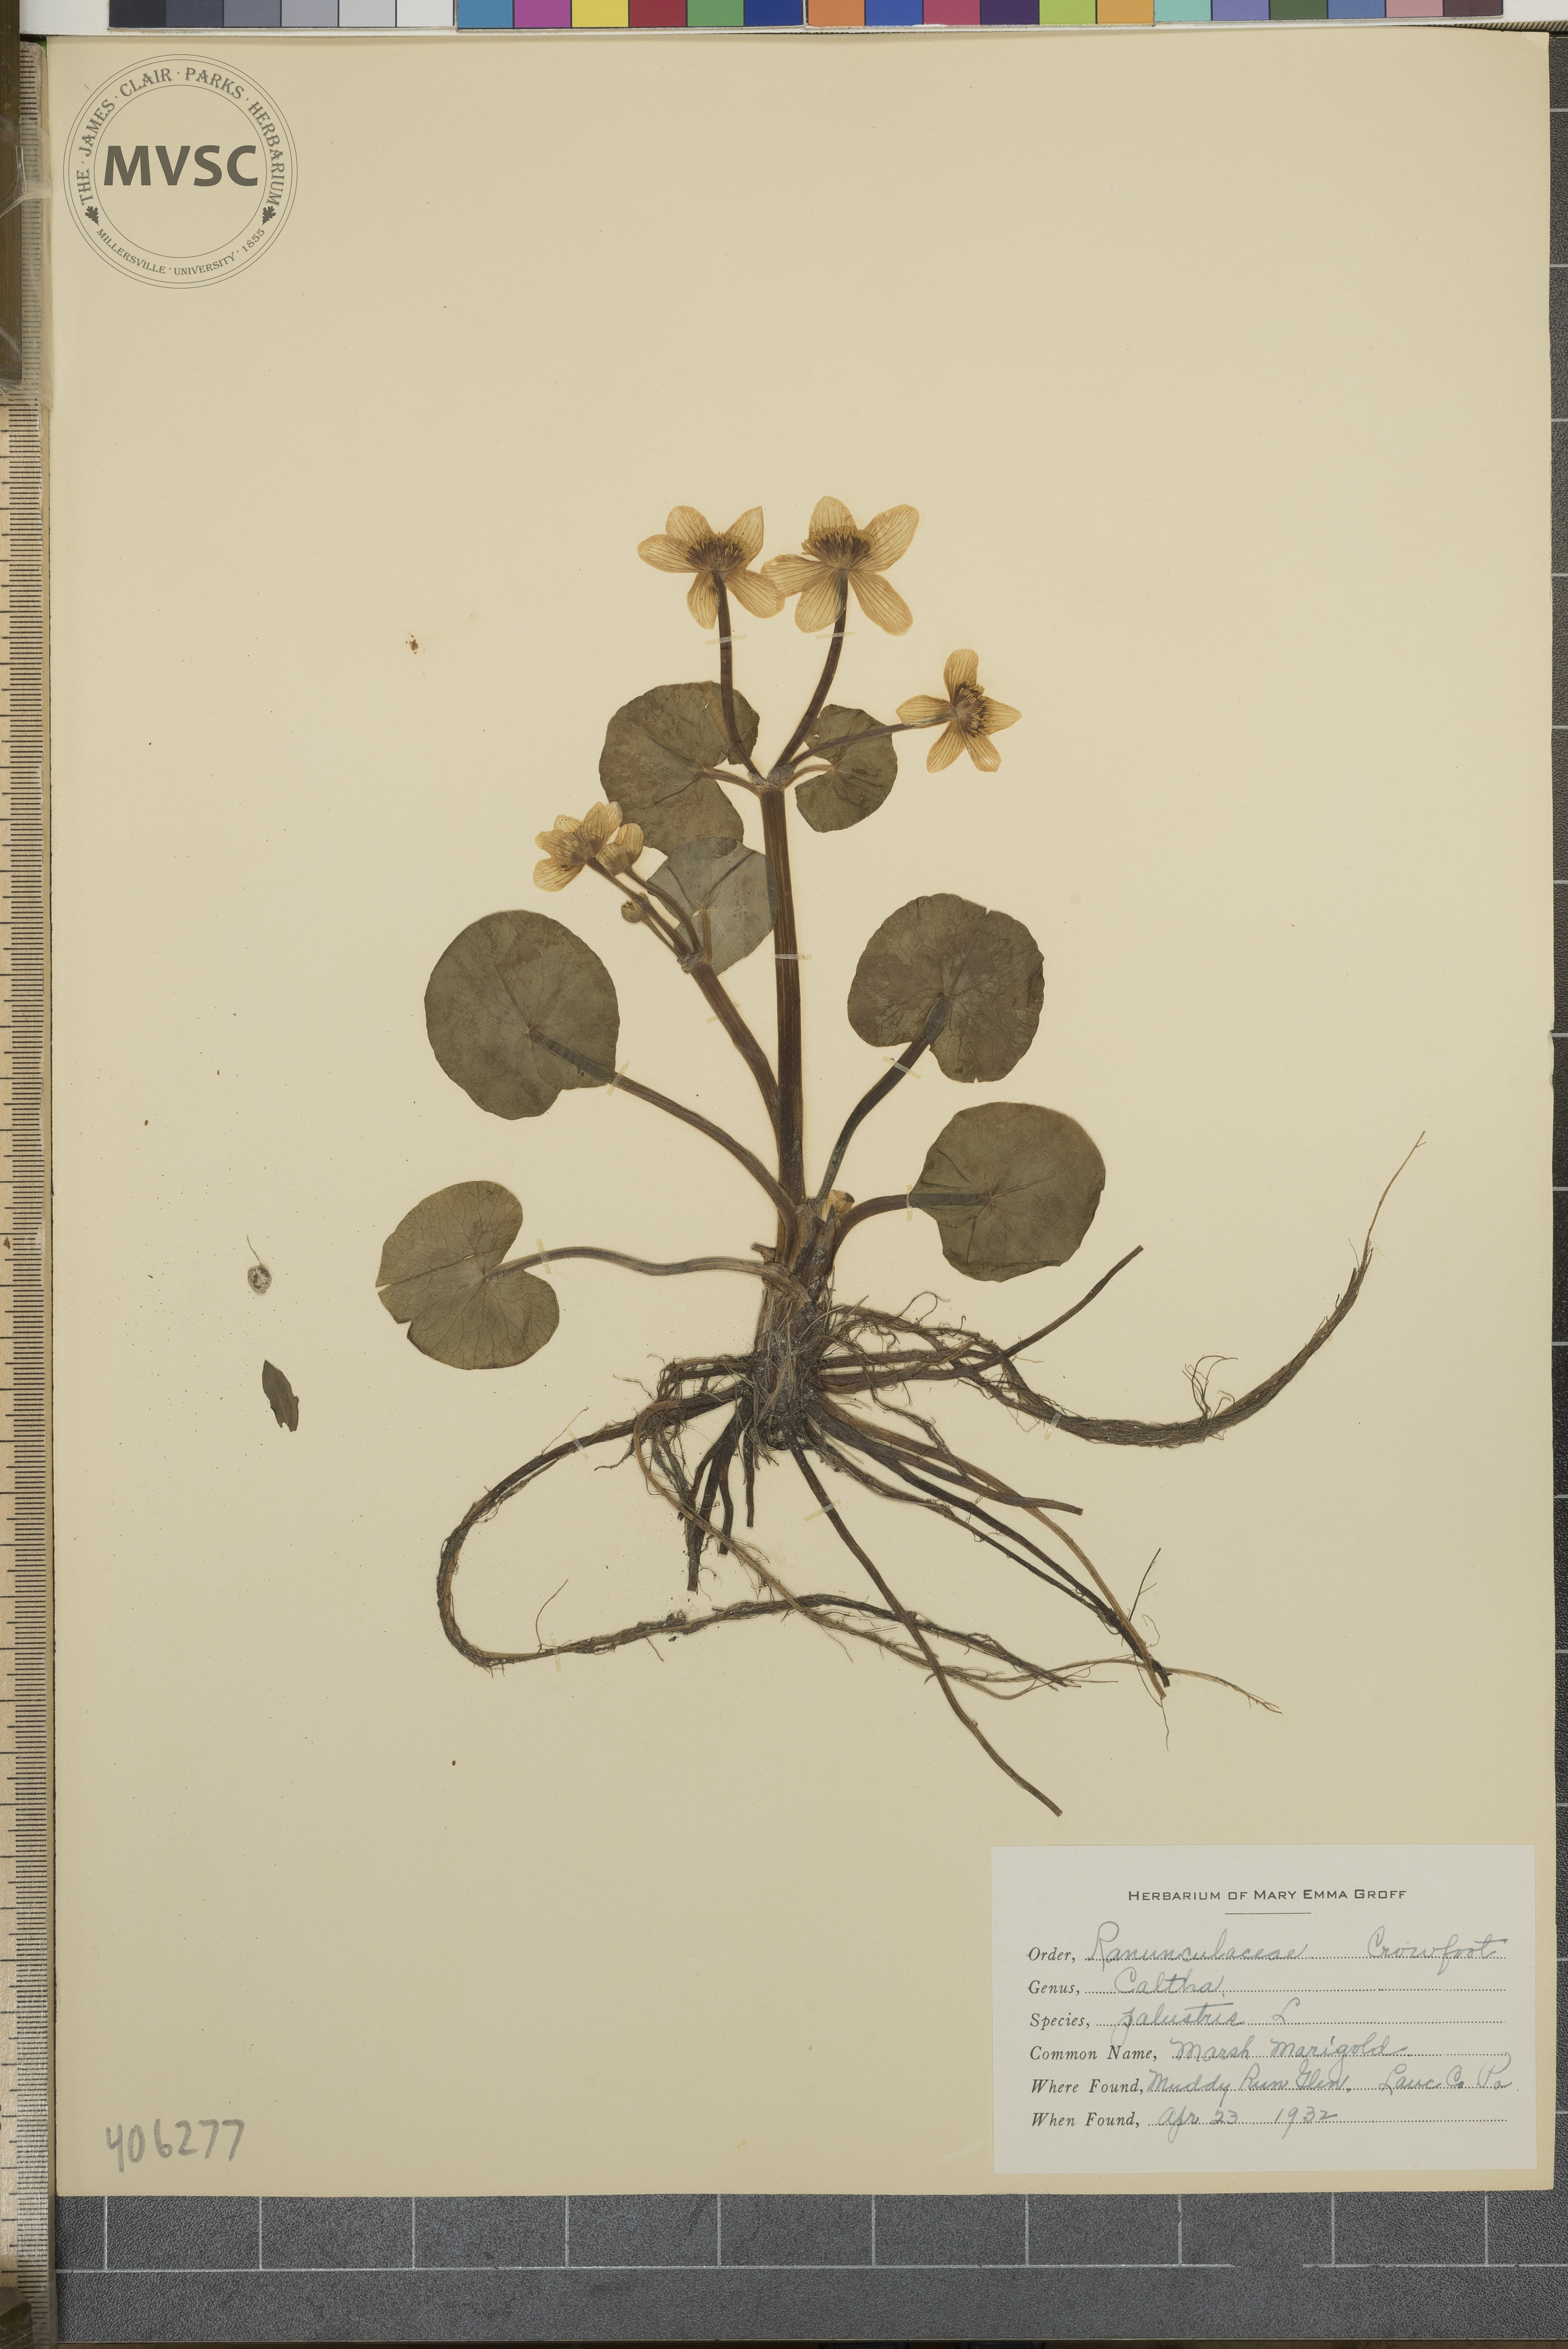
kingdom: Plantae
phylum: Tracheophyta
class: Magnoliopsida
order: Ranunculales
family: Ranunculaceae
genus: Caltha
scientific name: Caltha palustris
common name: Marsh Marigold
